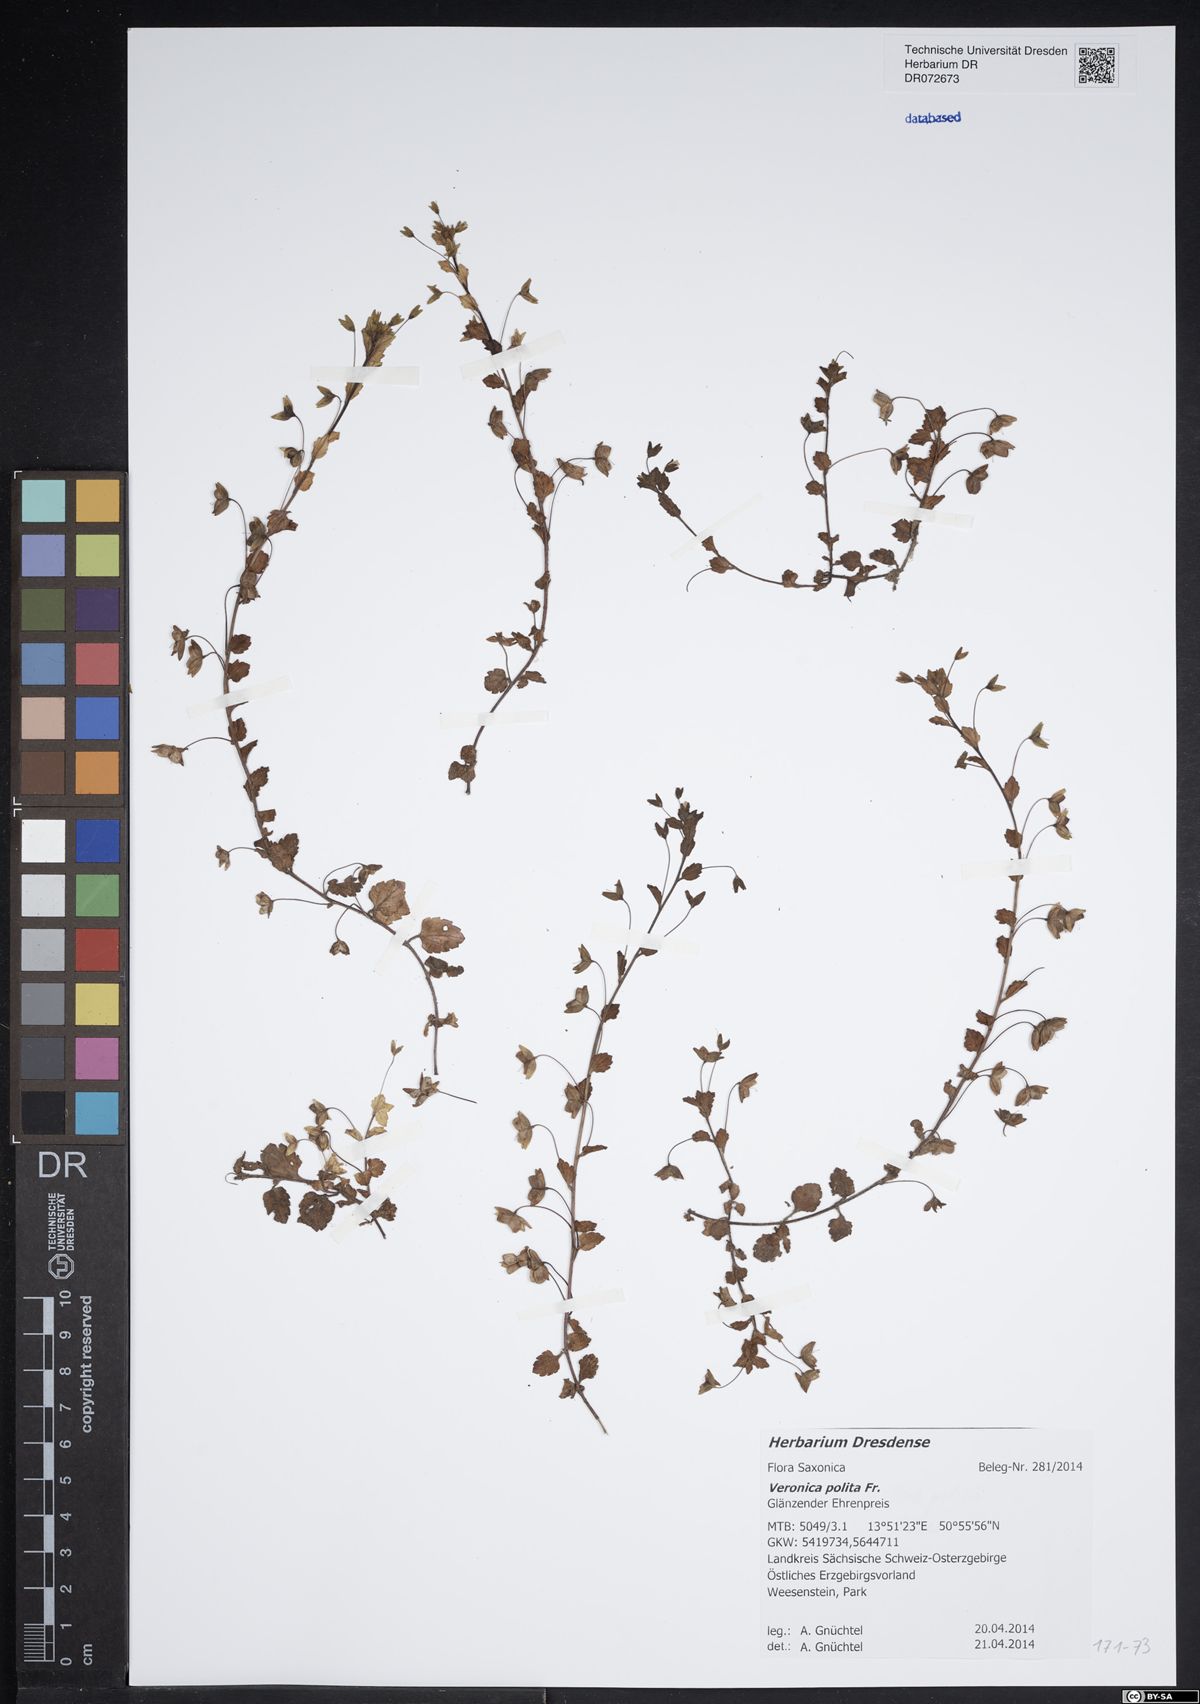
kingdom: Plantae
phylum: Tracheophyta
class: Magnoliopsida
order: Lamiales
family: Plantaginaceae
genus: Veronica
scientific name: Veronica polita
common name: Grey field-speedwell
